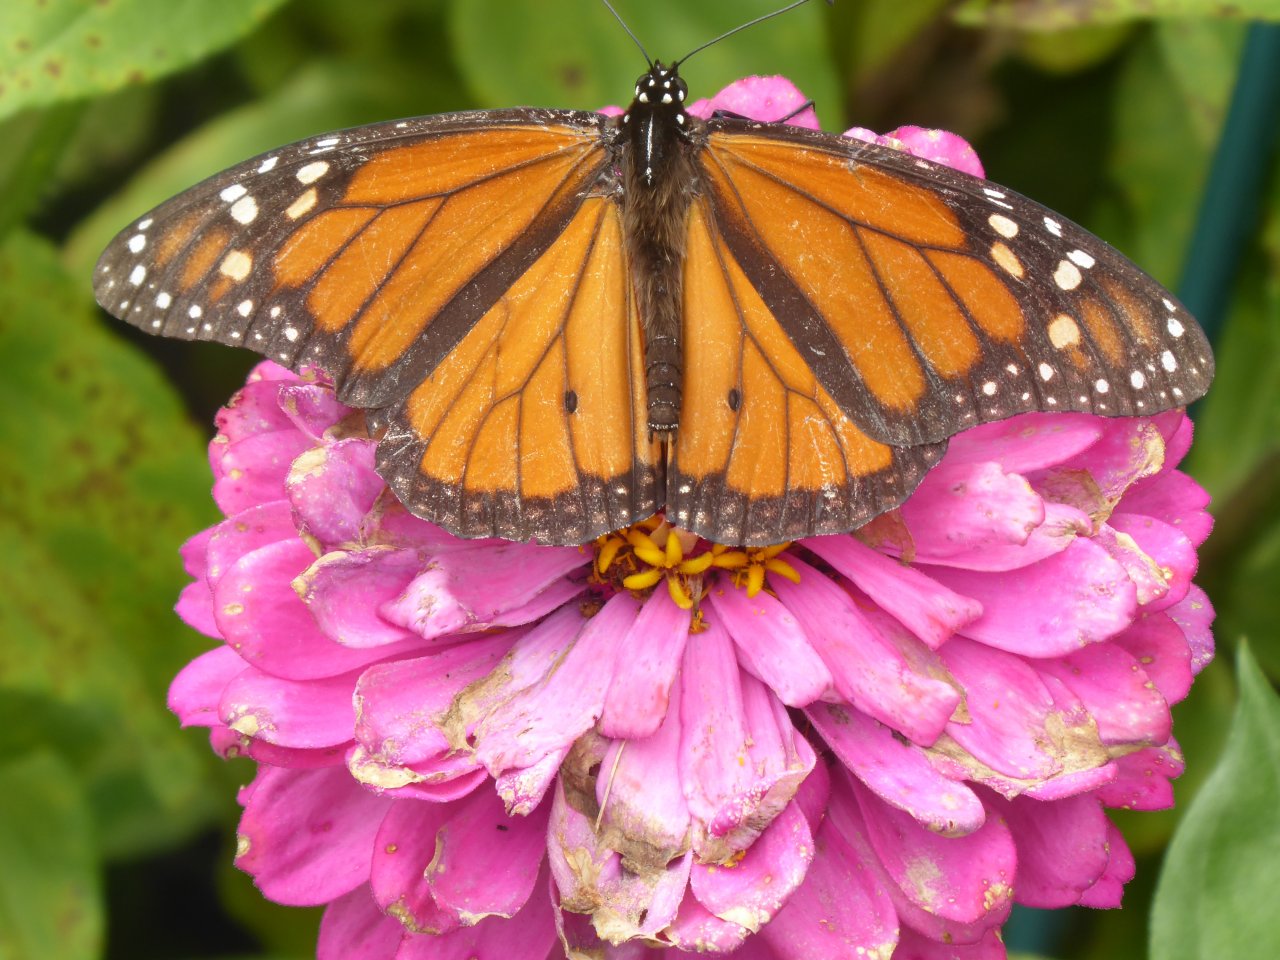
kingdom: Animalia
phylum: Arthropoda
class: Insecta
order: Lepidoptera
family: Nymphalidae
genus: Danaus
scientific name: Danaus plexippus
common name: Monarch
